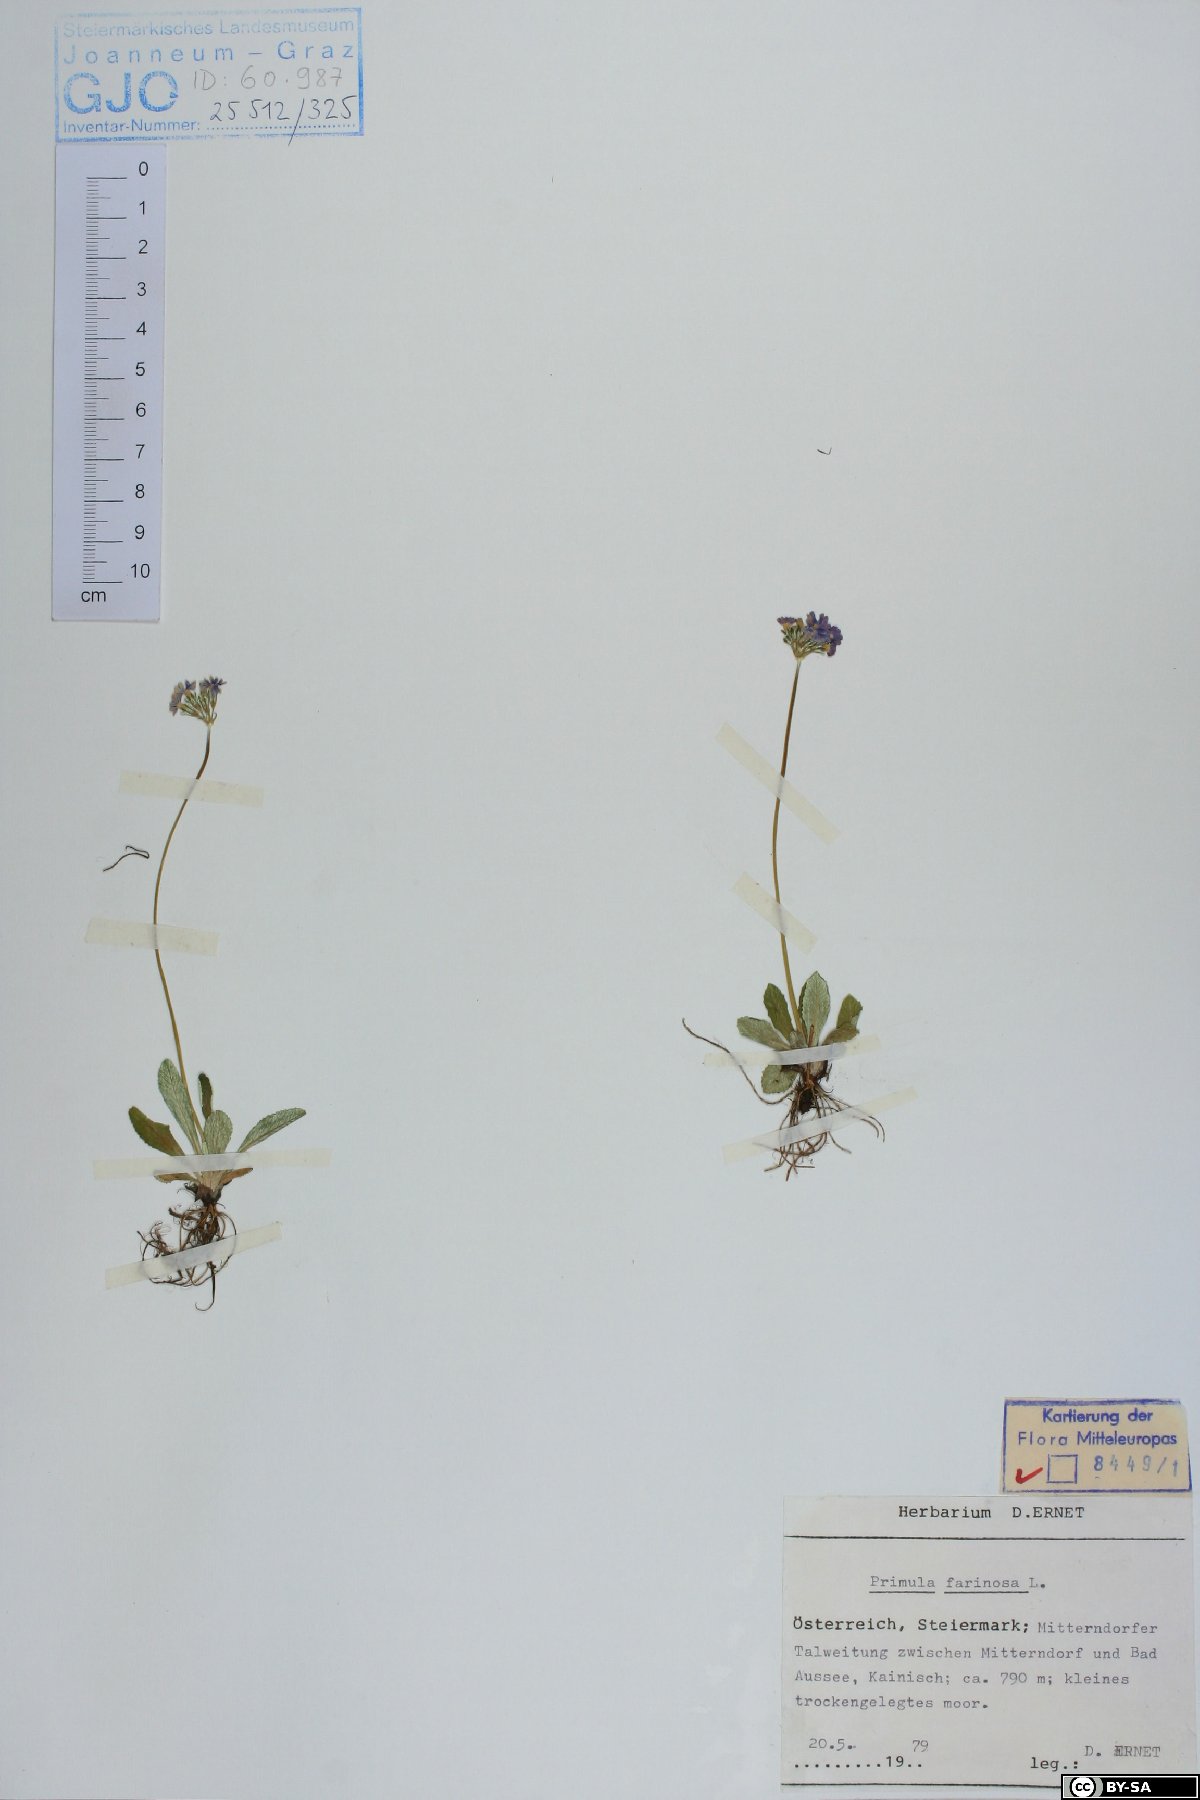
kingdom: Plantae
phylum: Tracheophyta
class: Magnoliopsida
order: Ericales
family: Primulaceae
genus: Primula
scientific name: Primula farinosa
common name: Bird's-eye primrose
